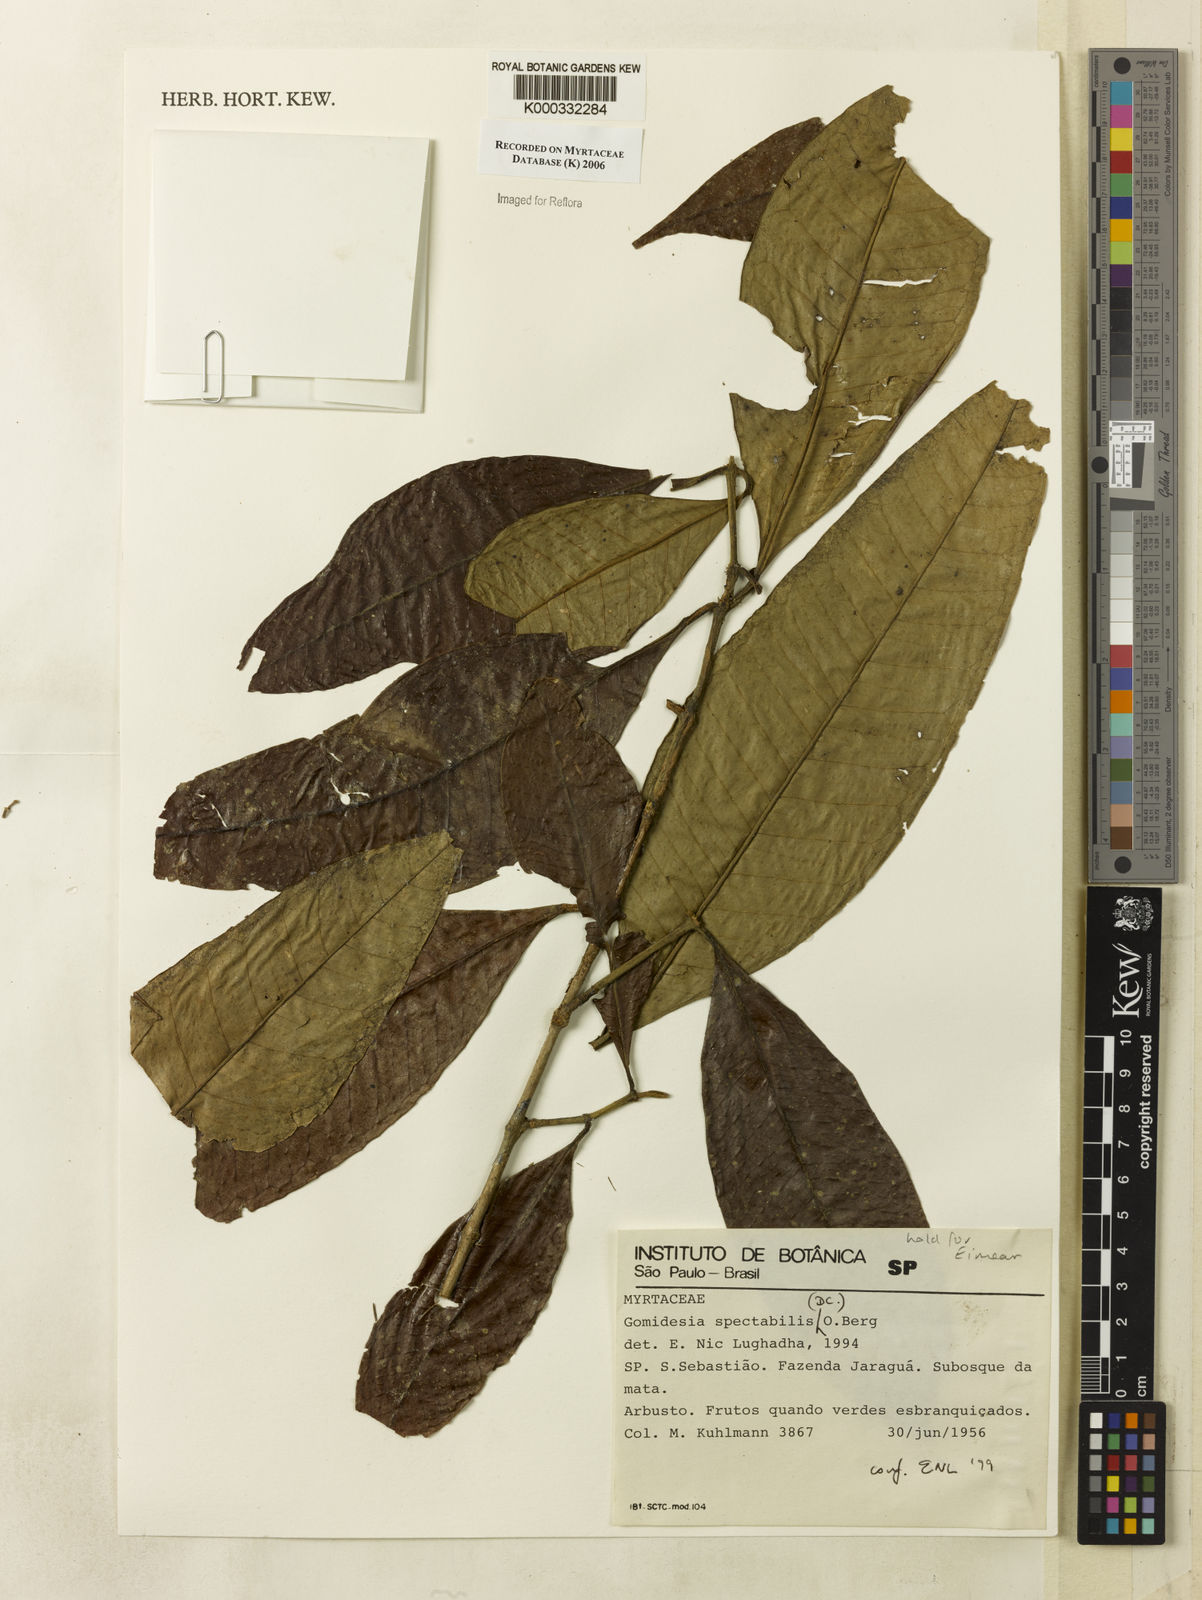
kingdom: Plantae
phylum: Tracheophyta
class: Magnoliopsida
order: Myrtales
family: Myrtaceae
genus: Myrcia
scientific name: Myrcia
